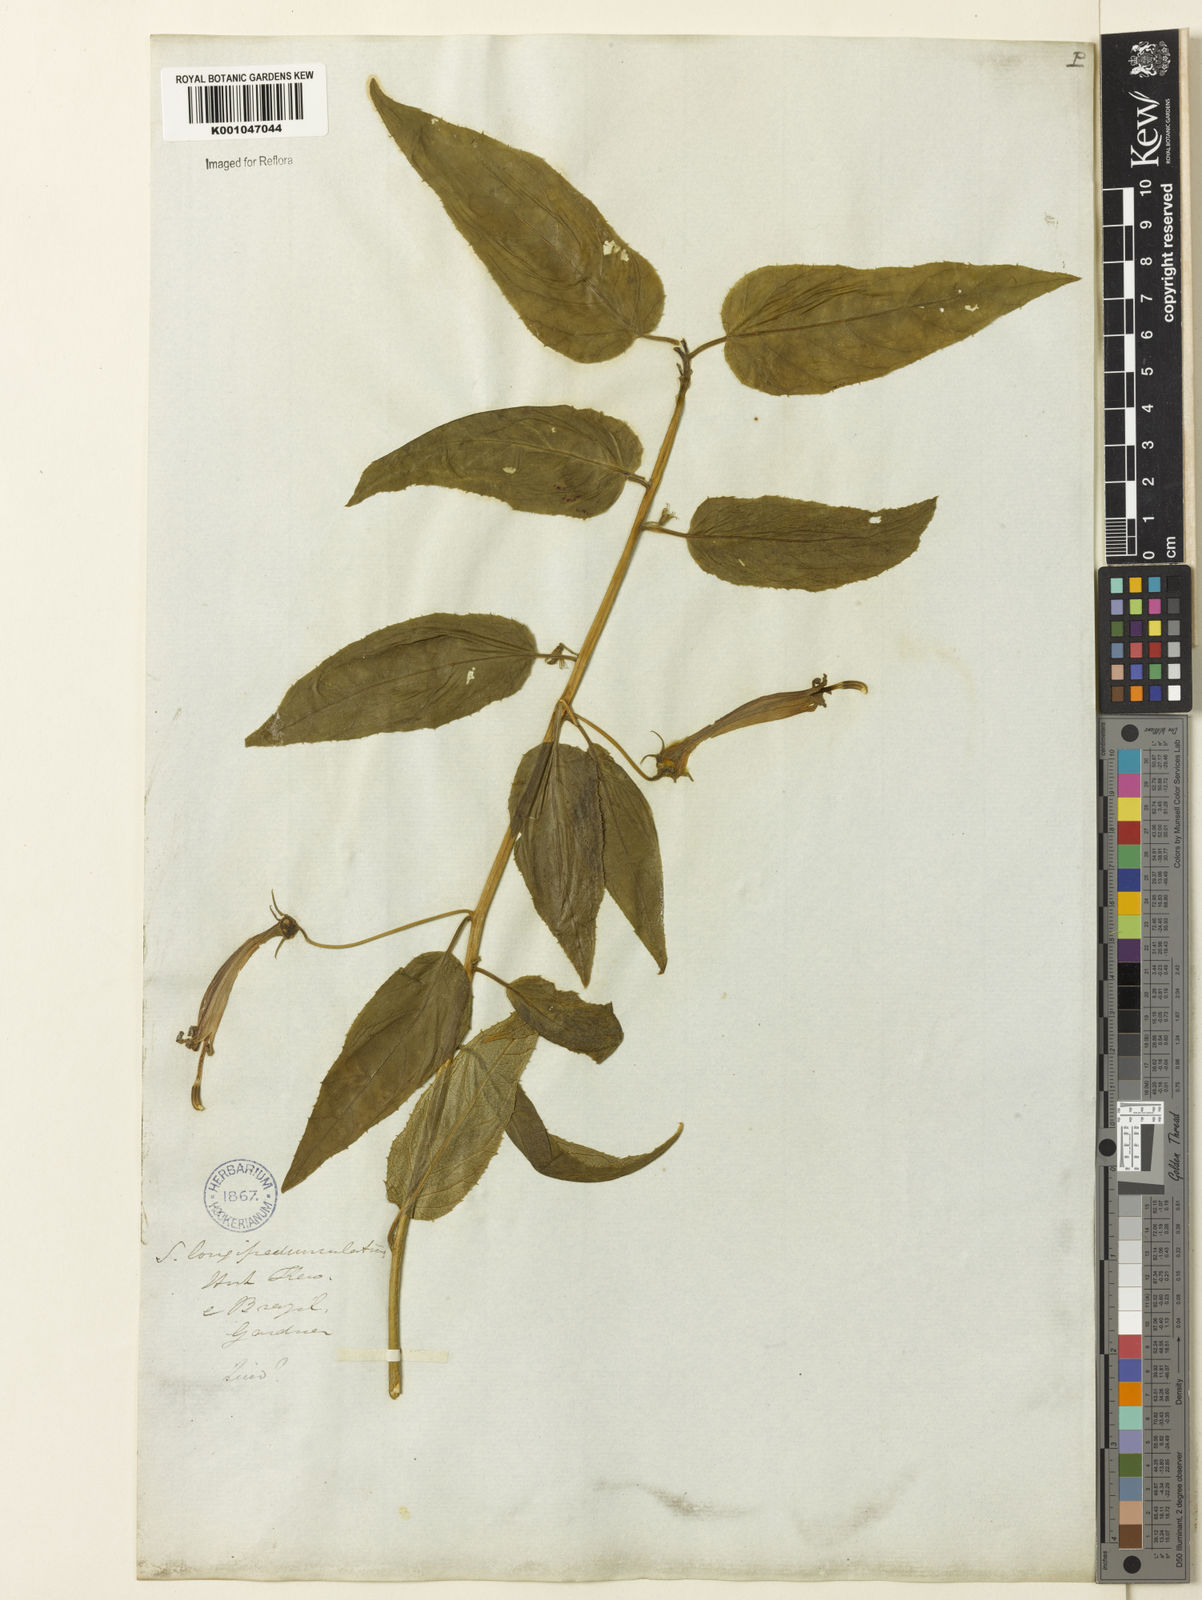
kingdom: Plantae
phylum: Tracheophyta
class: Magnoliopsida
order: Asterales
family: Campanulaceae
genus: Siphocampylus
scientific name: Siphocampylus longipedunculatus
